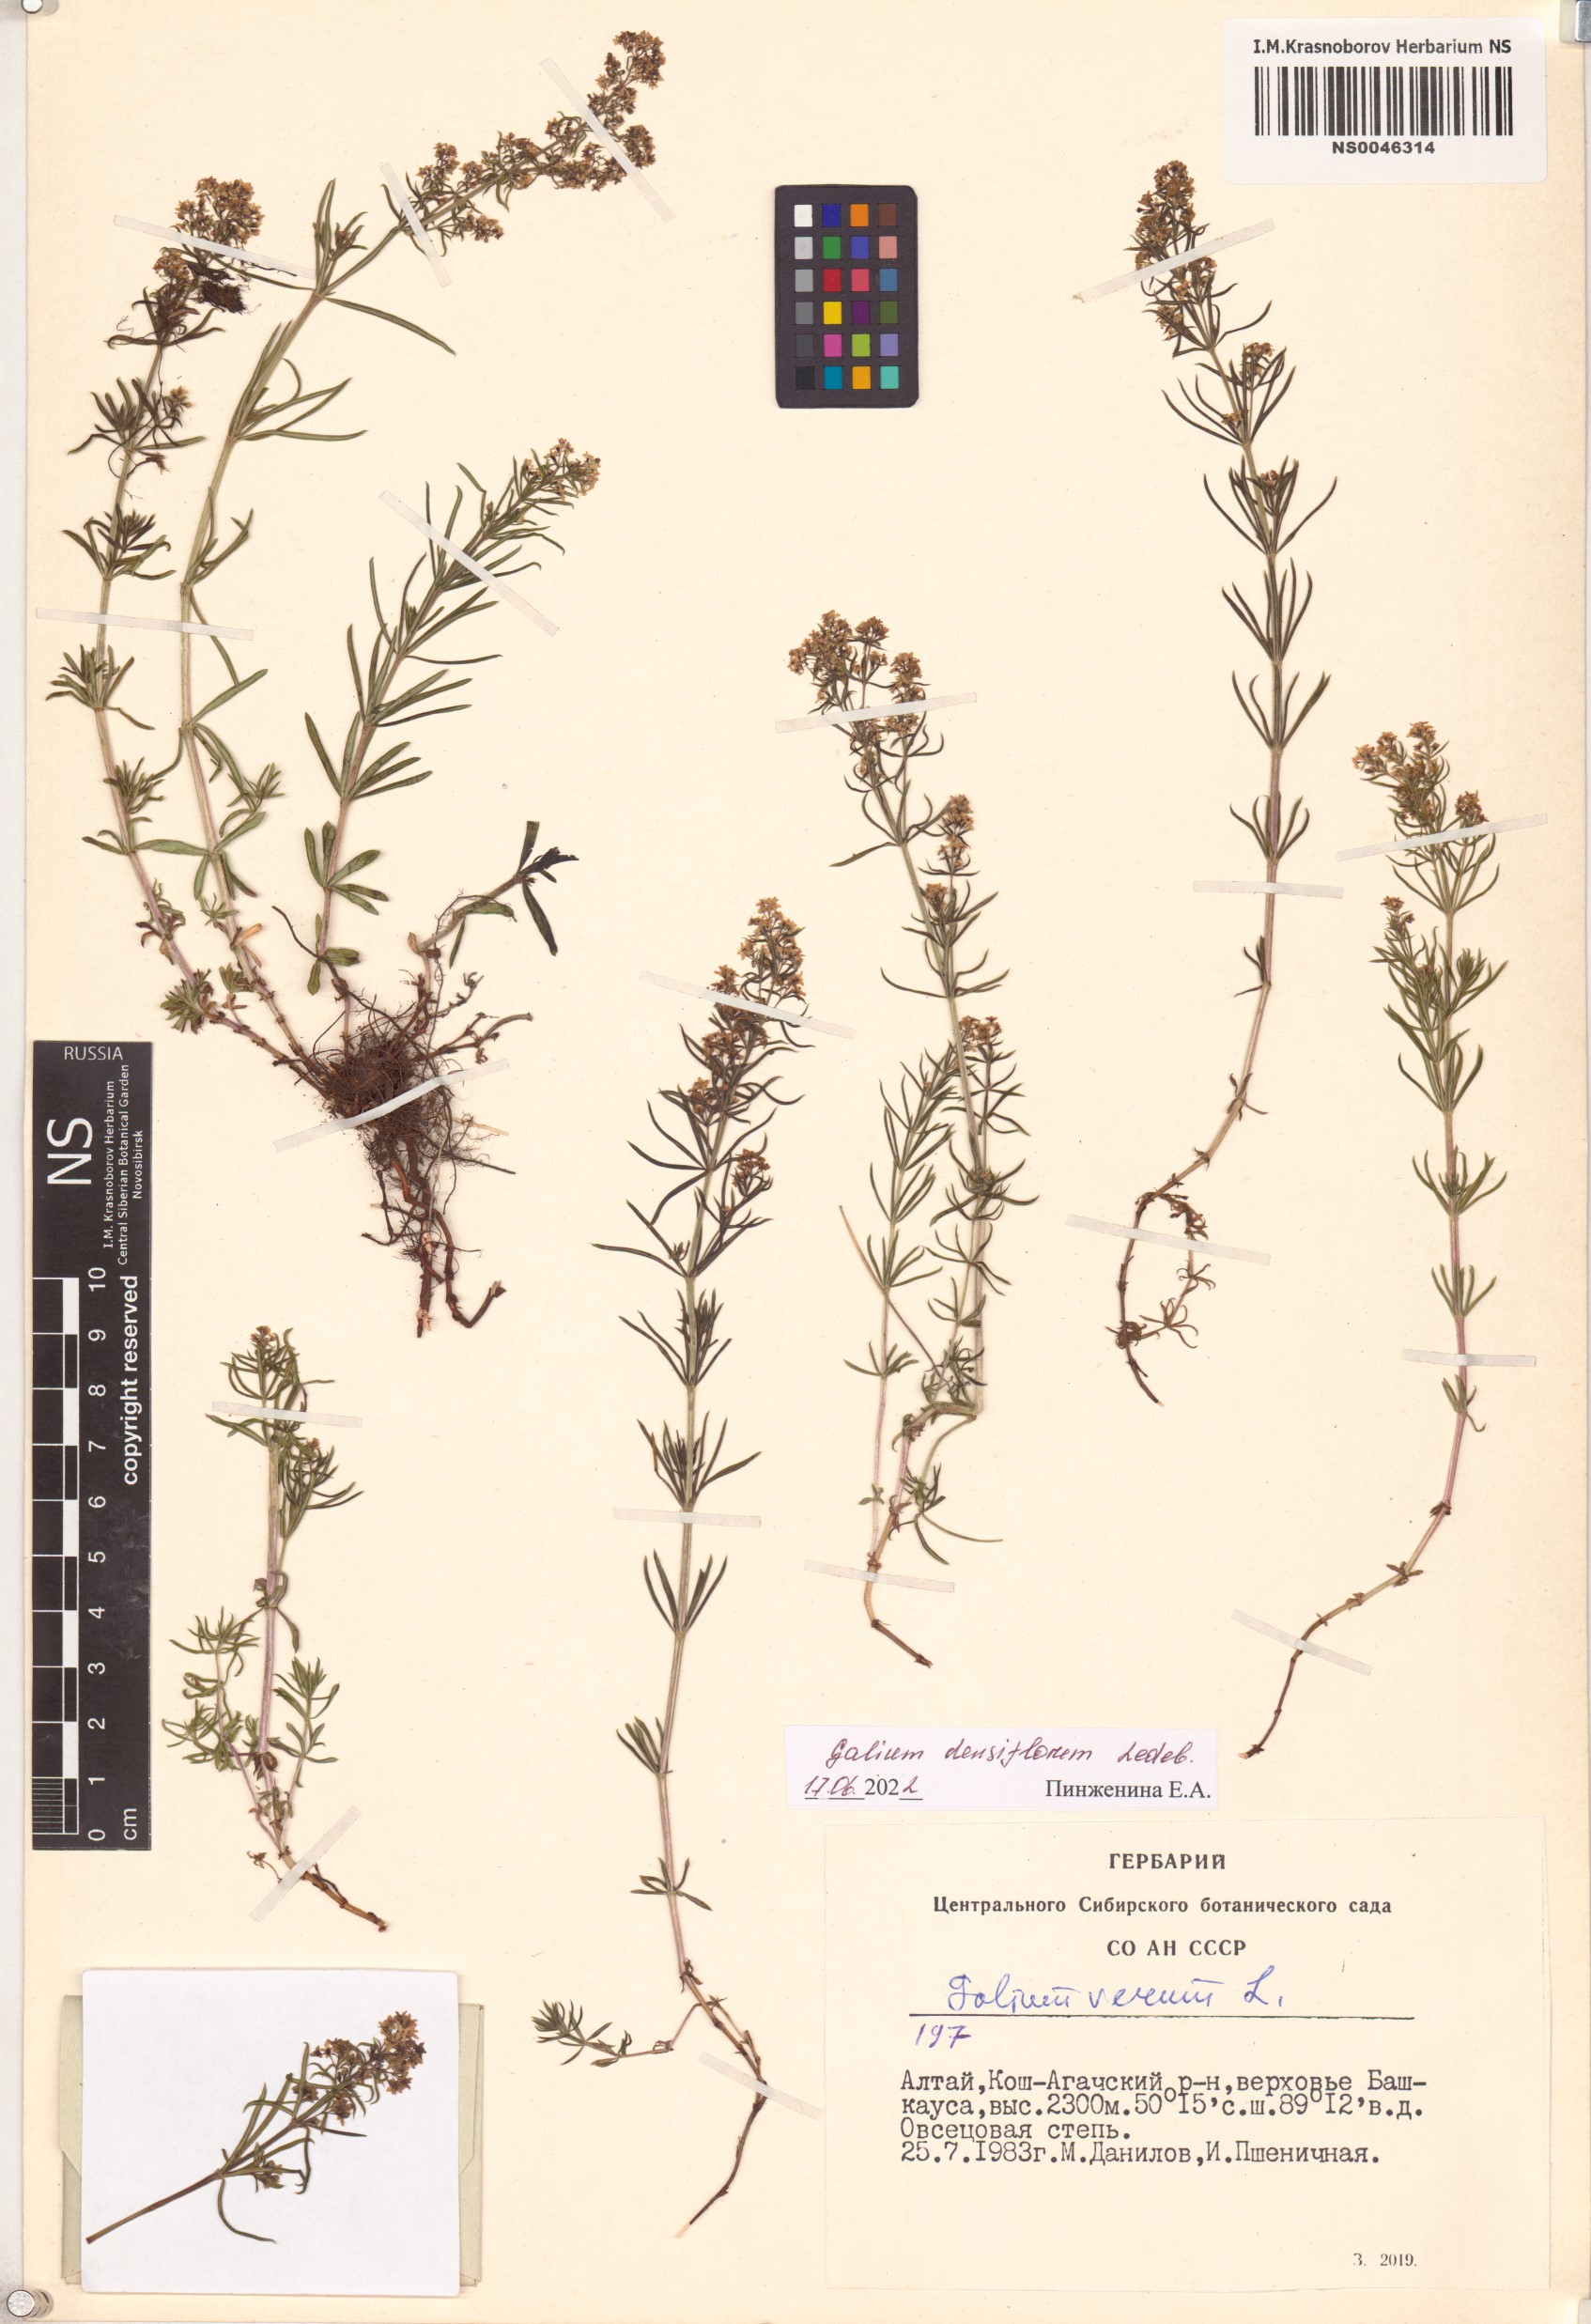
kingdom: Plantae
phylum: Tracheophyta
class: Magnoliopsida
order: Gentianales
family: Rubiaceae
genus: Galium
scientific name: Galium densiflorum
